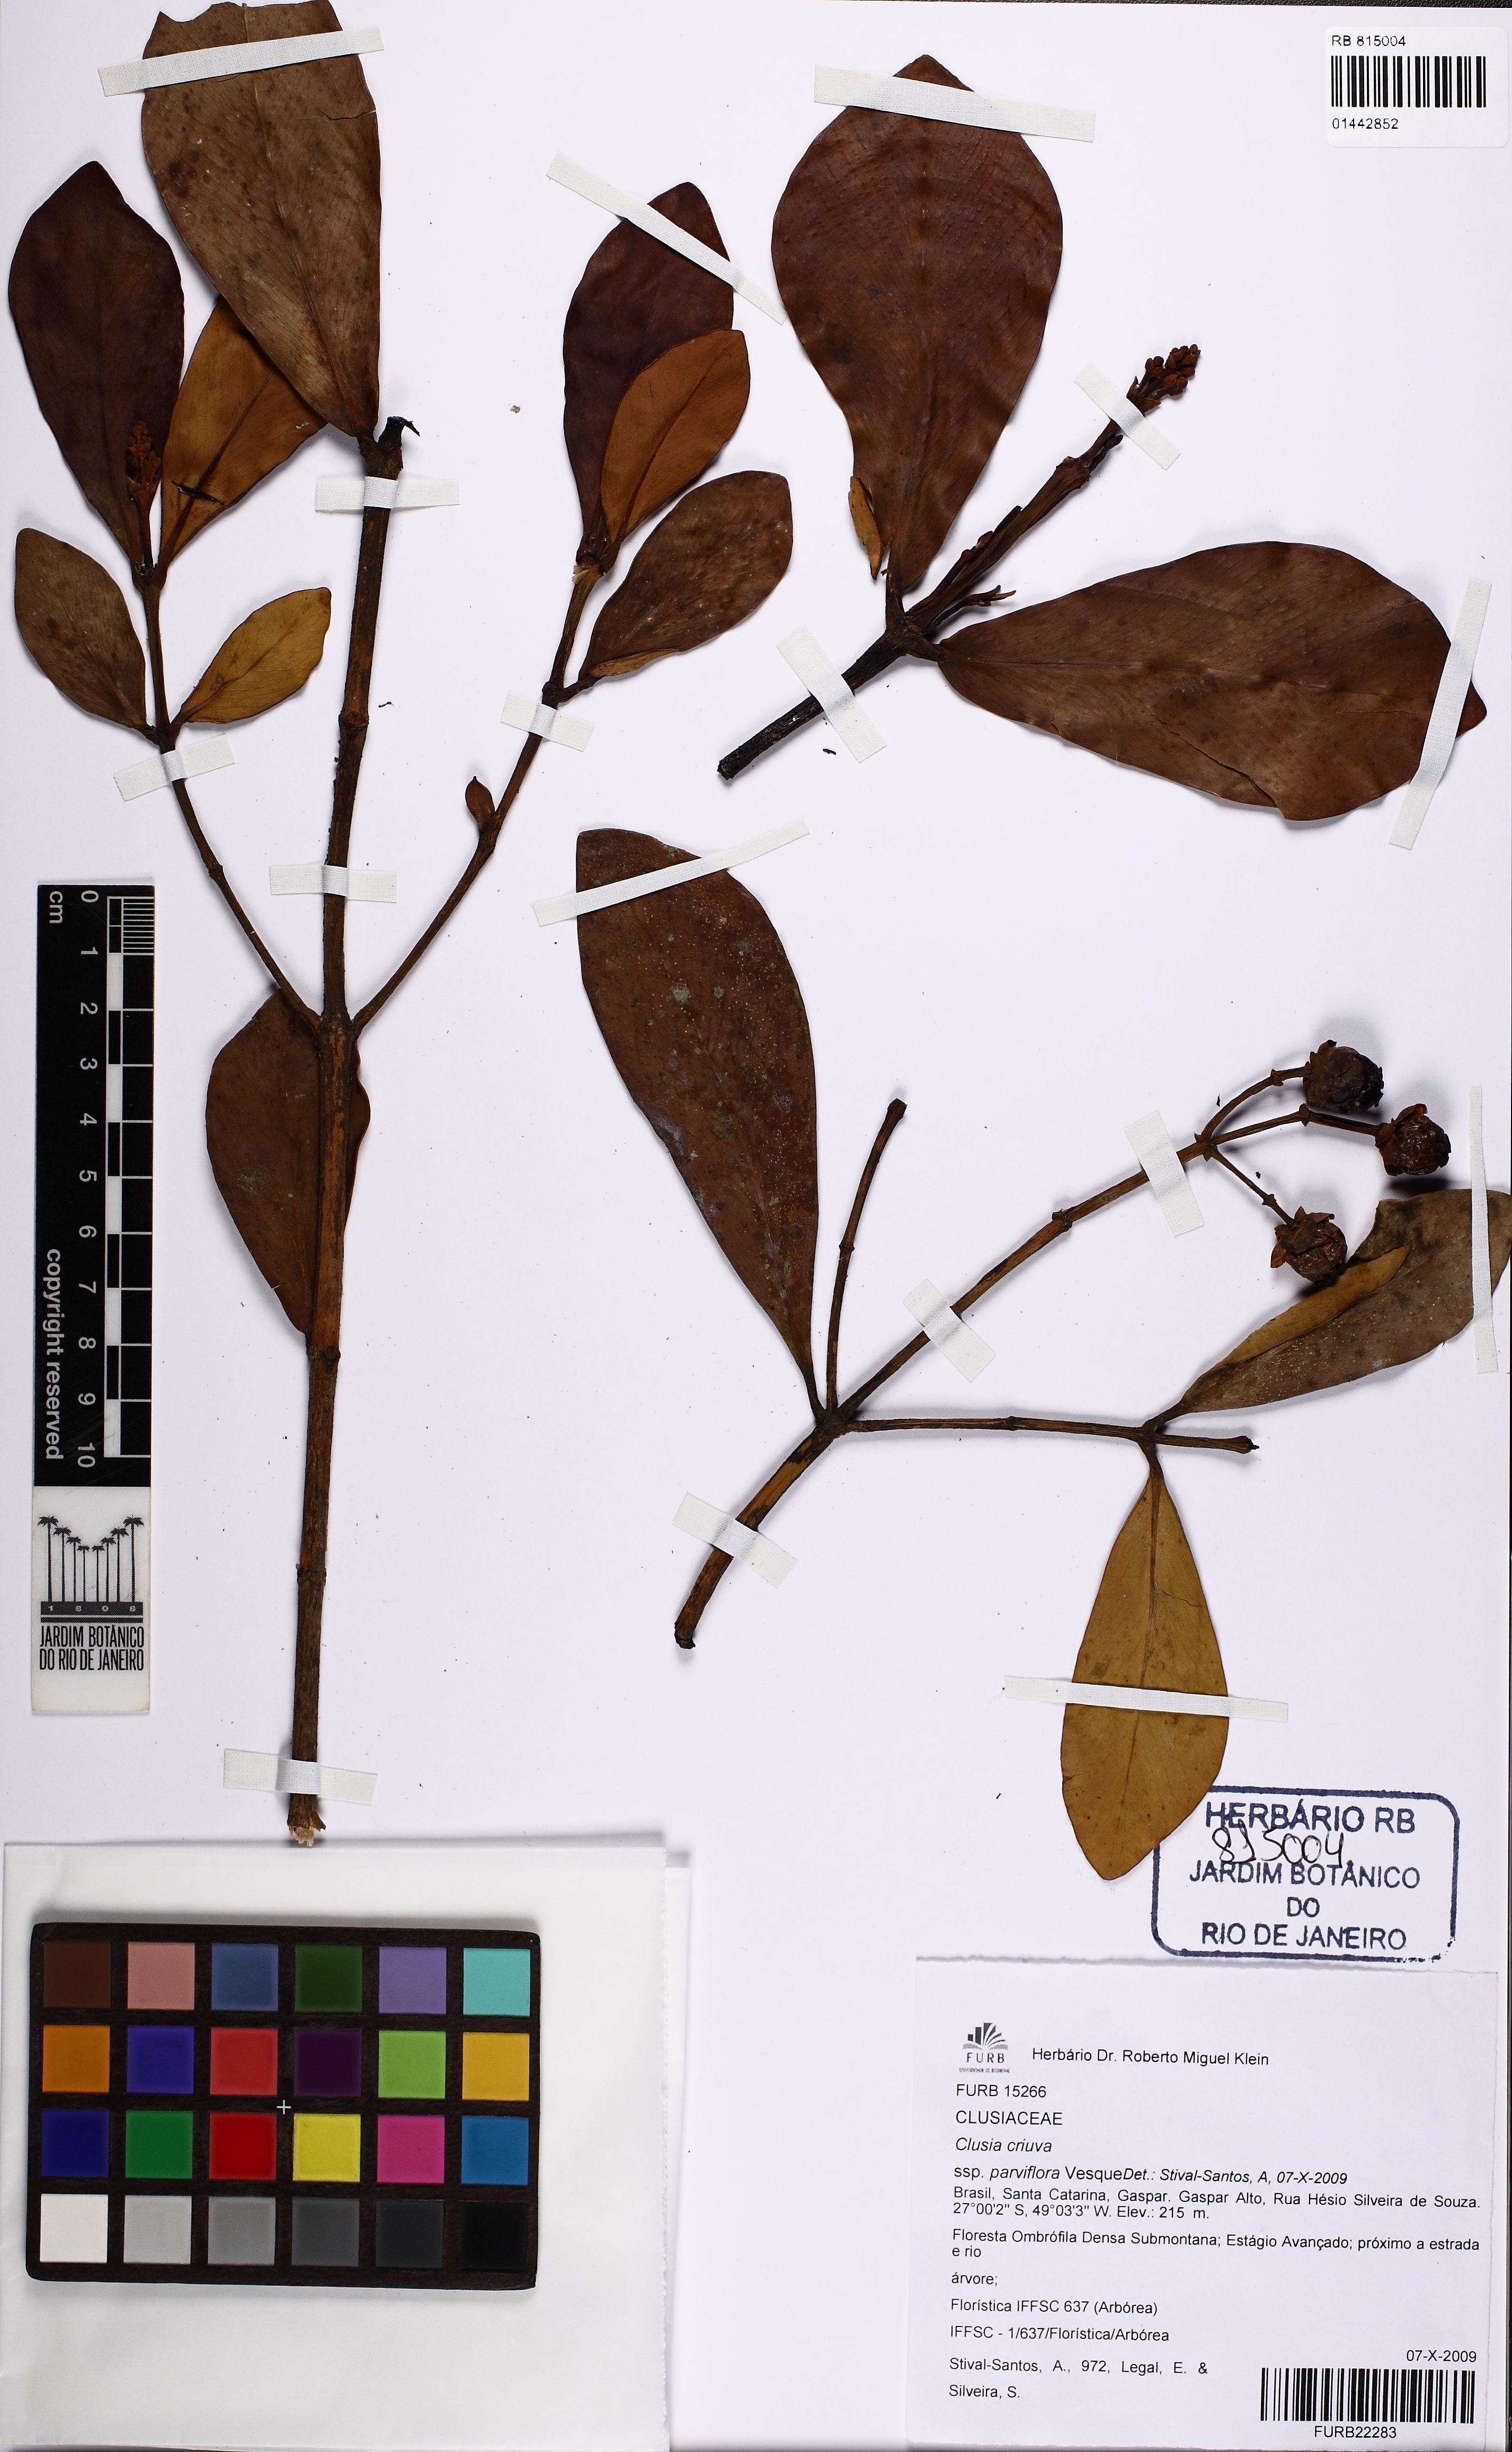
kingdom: Plantae
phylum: Tracheophyta
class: Magnoliopsida
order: Malpighiales
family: Clusiaceae
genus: Clusia
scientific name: Clusia criuva
